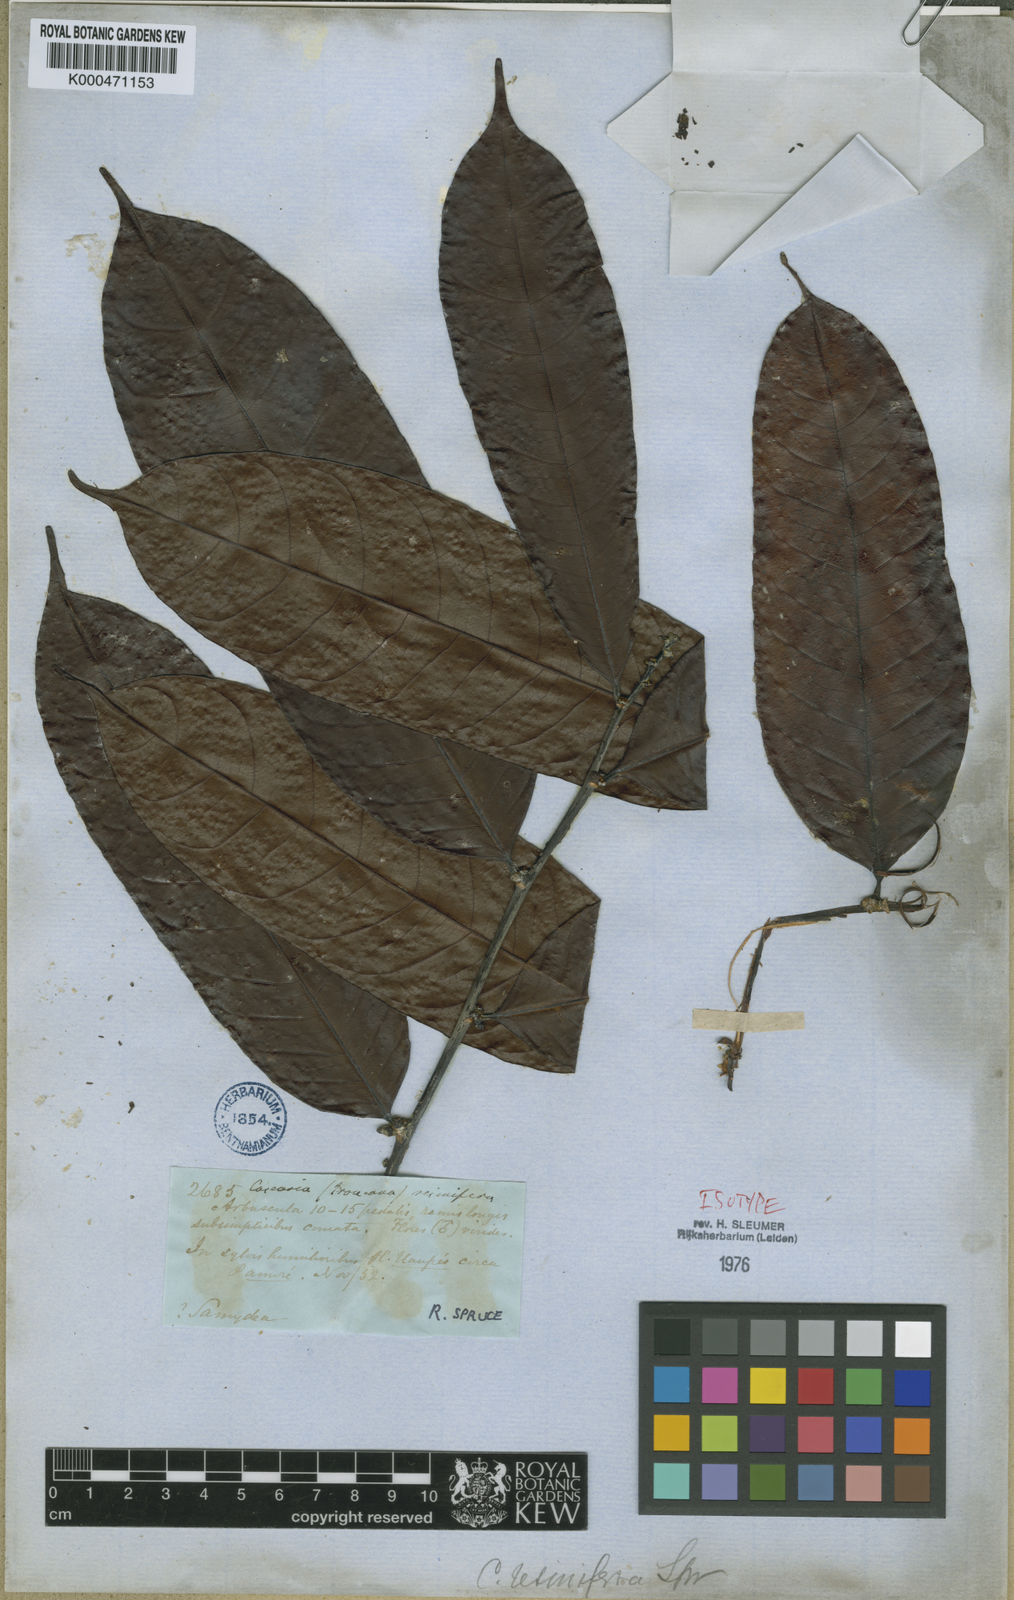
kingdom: Plantae
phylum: Tracheophyta
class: Magnoliopsida
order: Malpighiales
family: Salicaceae
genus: Casearia
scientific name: Casearia resinifera
